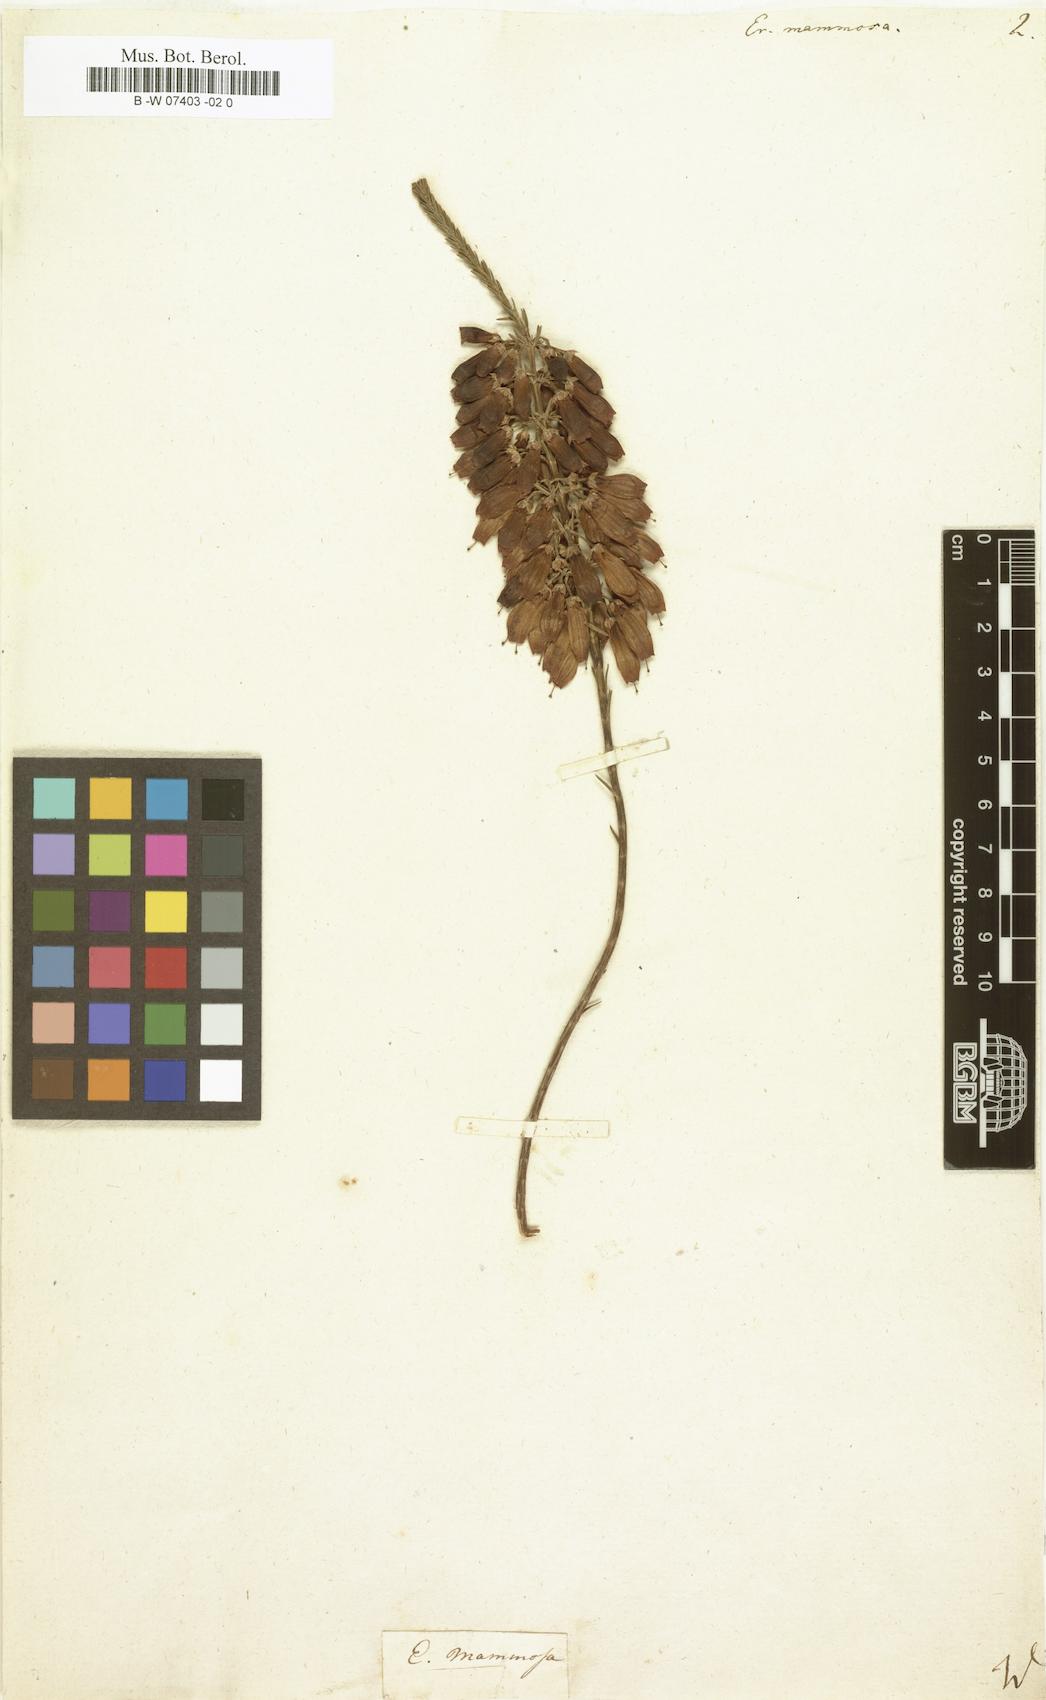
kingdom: Plantae
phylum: Tracheophyta
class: Magnoliopsida
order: Ericales
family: Ericaceae
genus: Erica
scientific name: Erica mammosa
